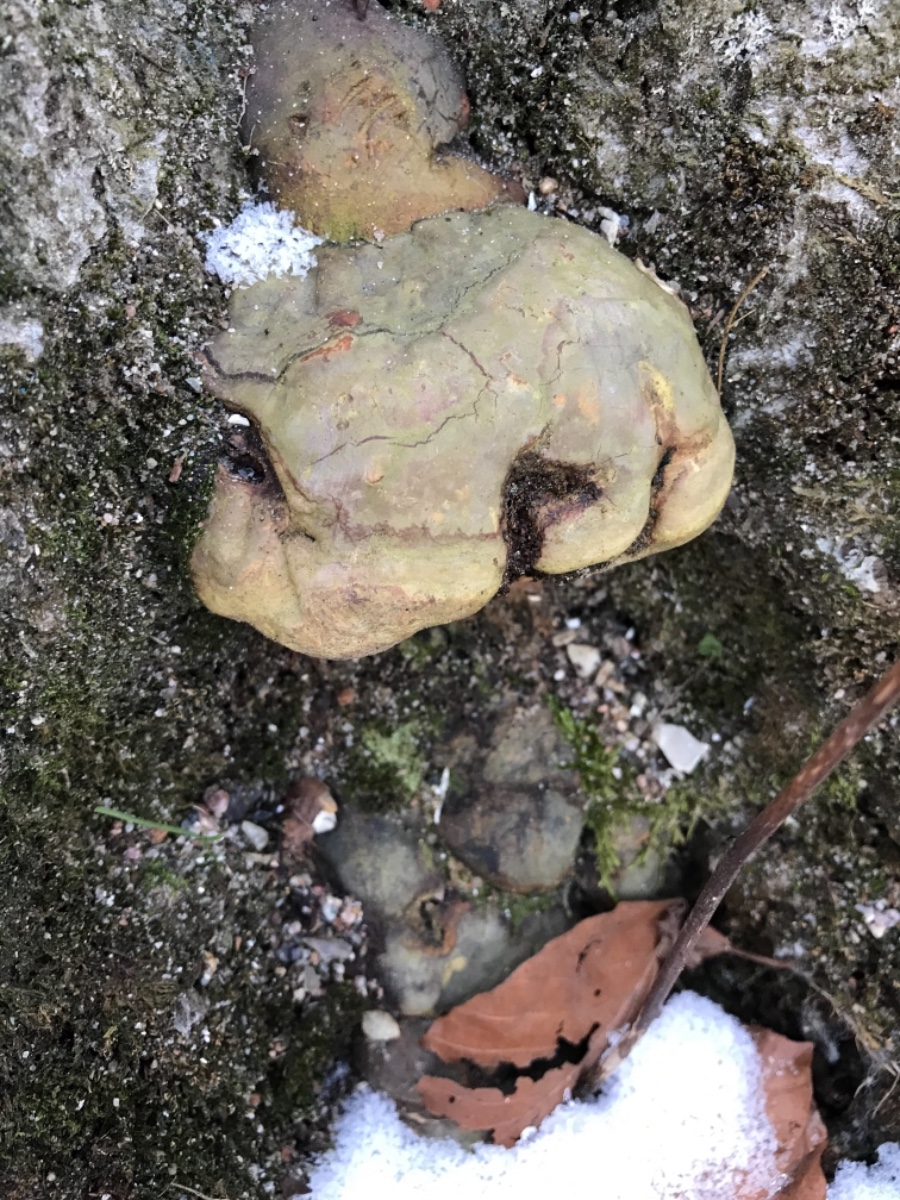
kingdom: Fungi
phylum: Basidiomycota
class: Agaricomycetes
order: Polyporales
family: Polyporaceae
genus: Ganoderma
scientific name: Ganoderma pfeifferi
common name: kobberrød lakporesvamp
